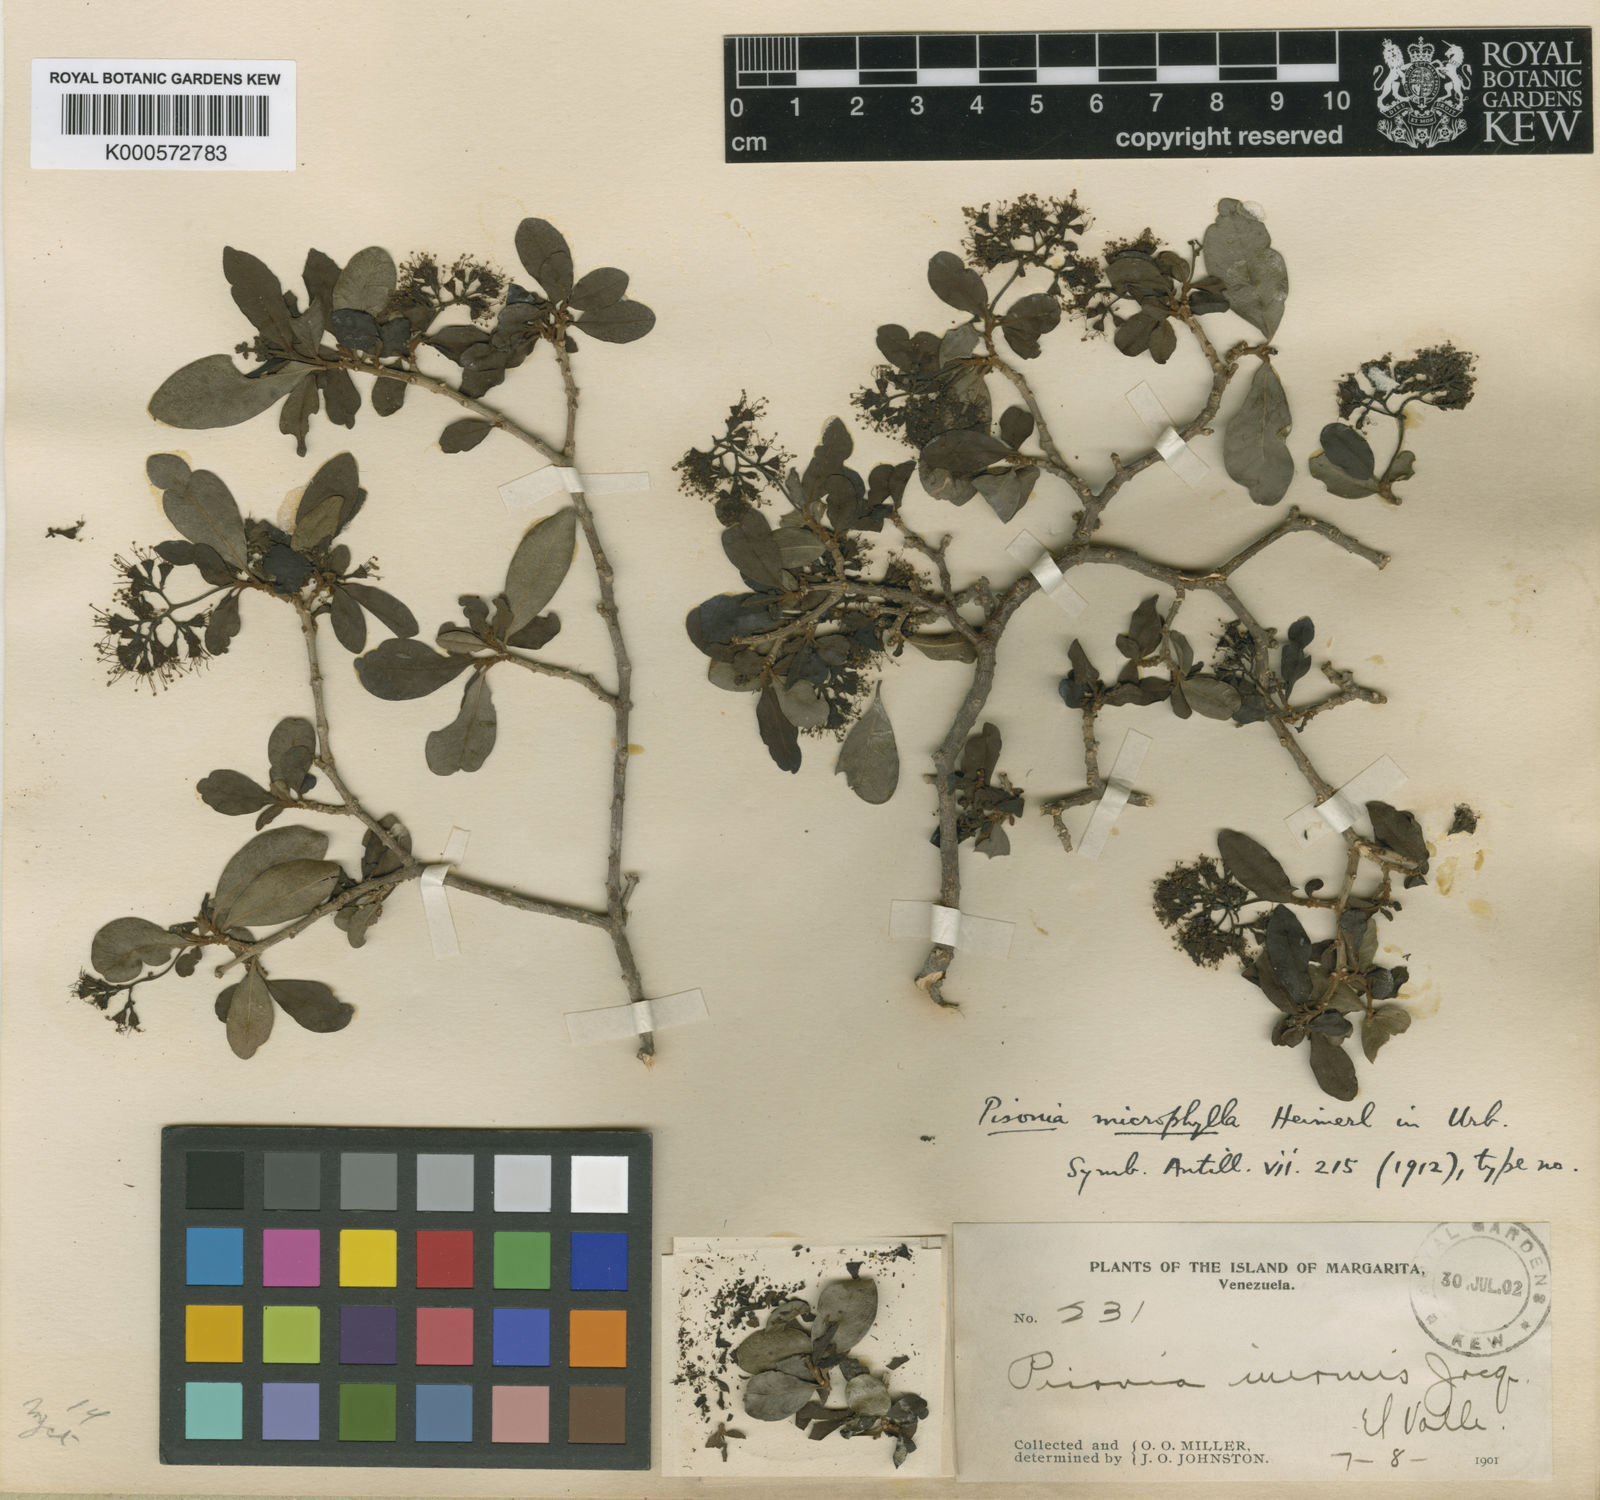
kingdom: Plantae
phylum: Tracheophyta
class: Magnoliopsida
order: Caryophyllales
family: Nyctaginaceae
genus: Guapira
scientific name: Guapira microphylla
